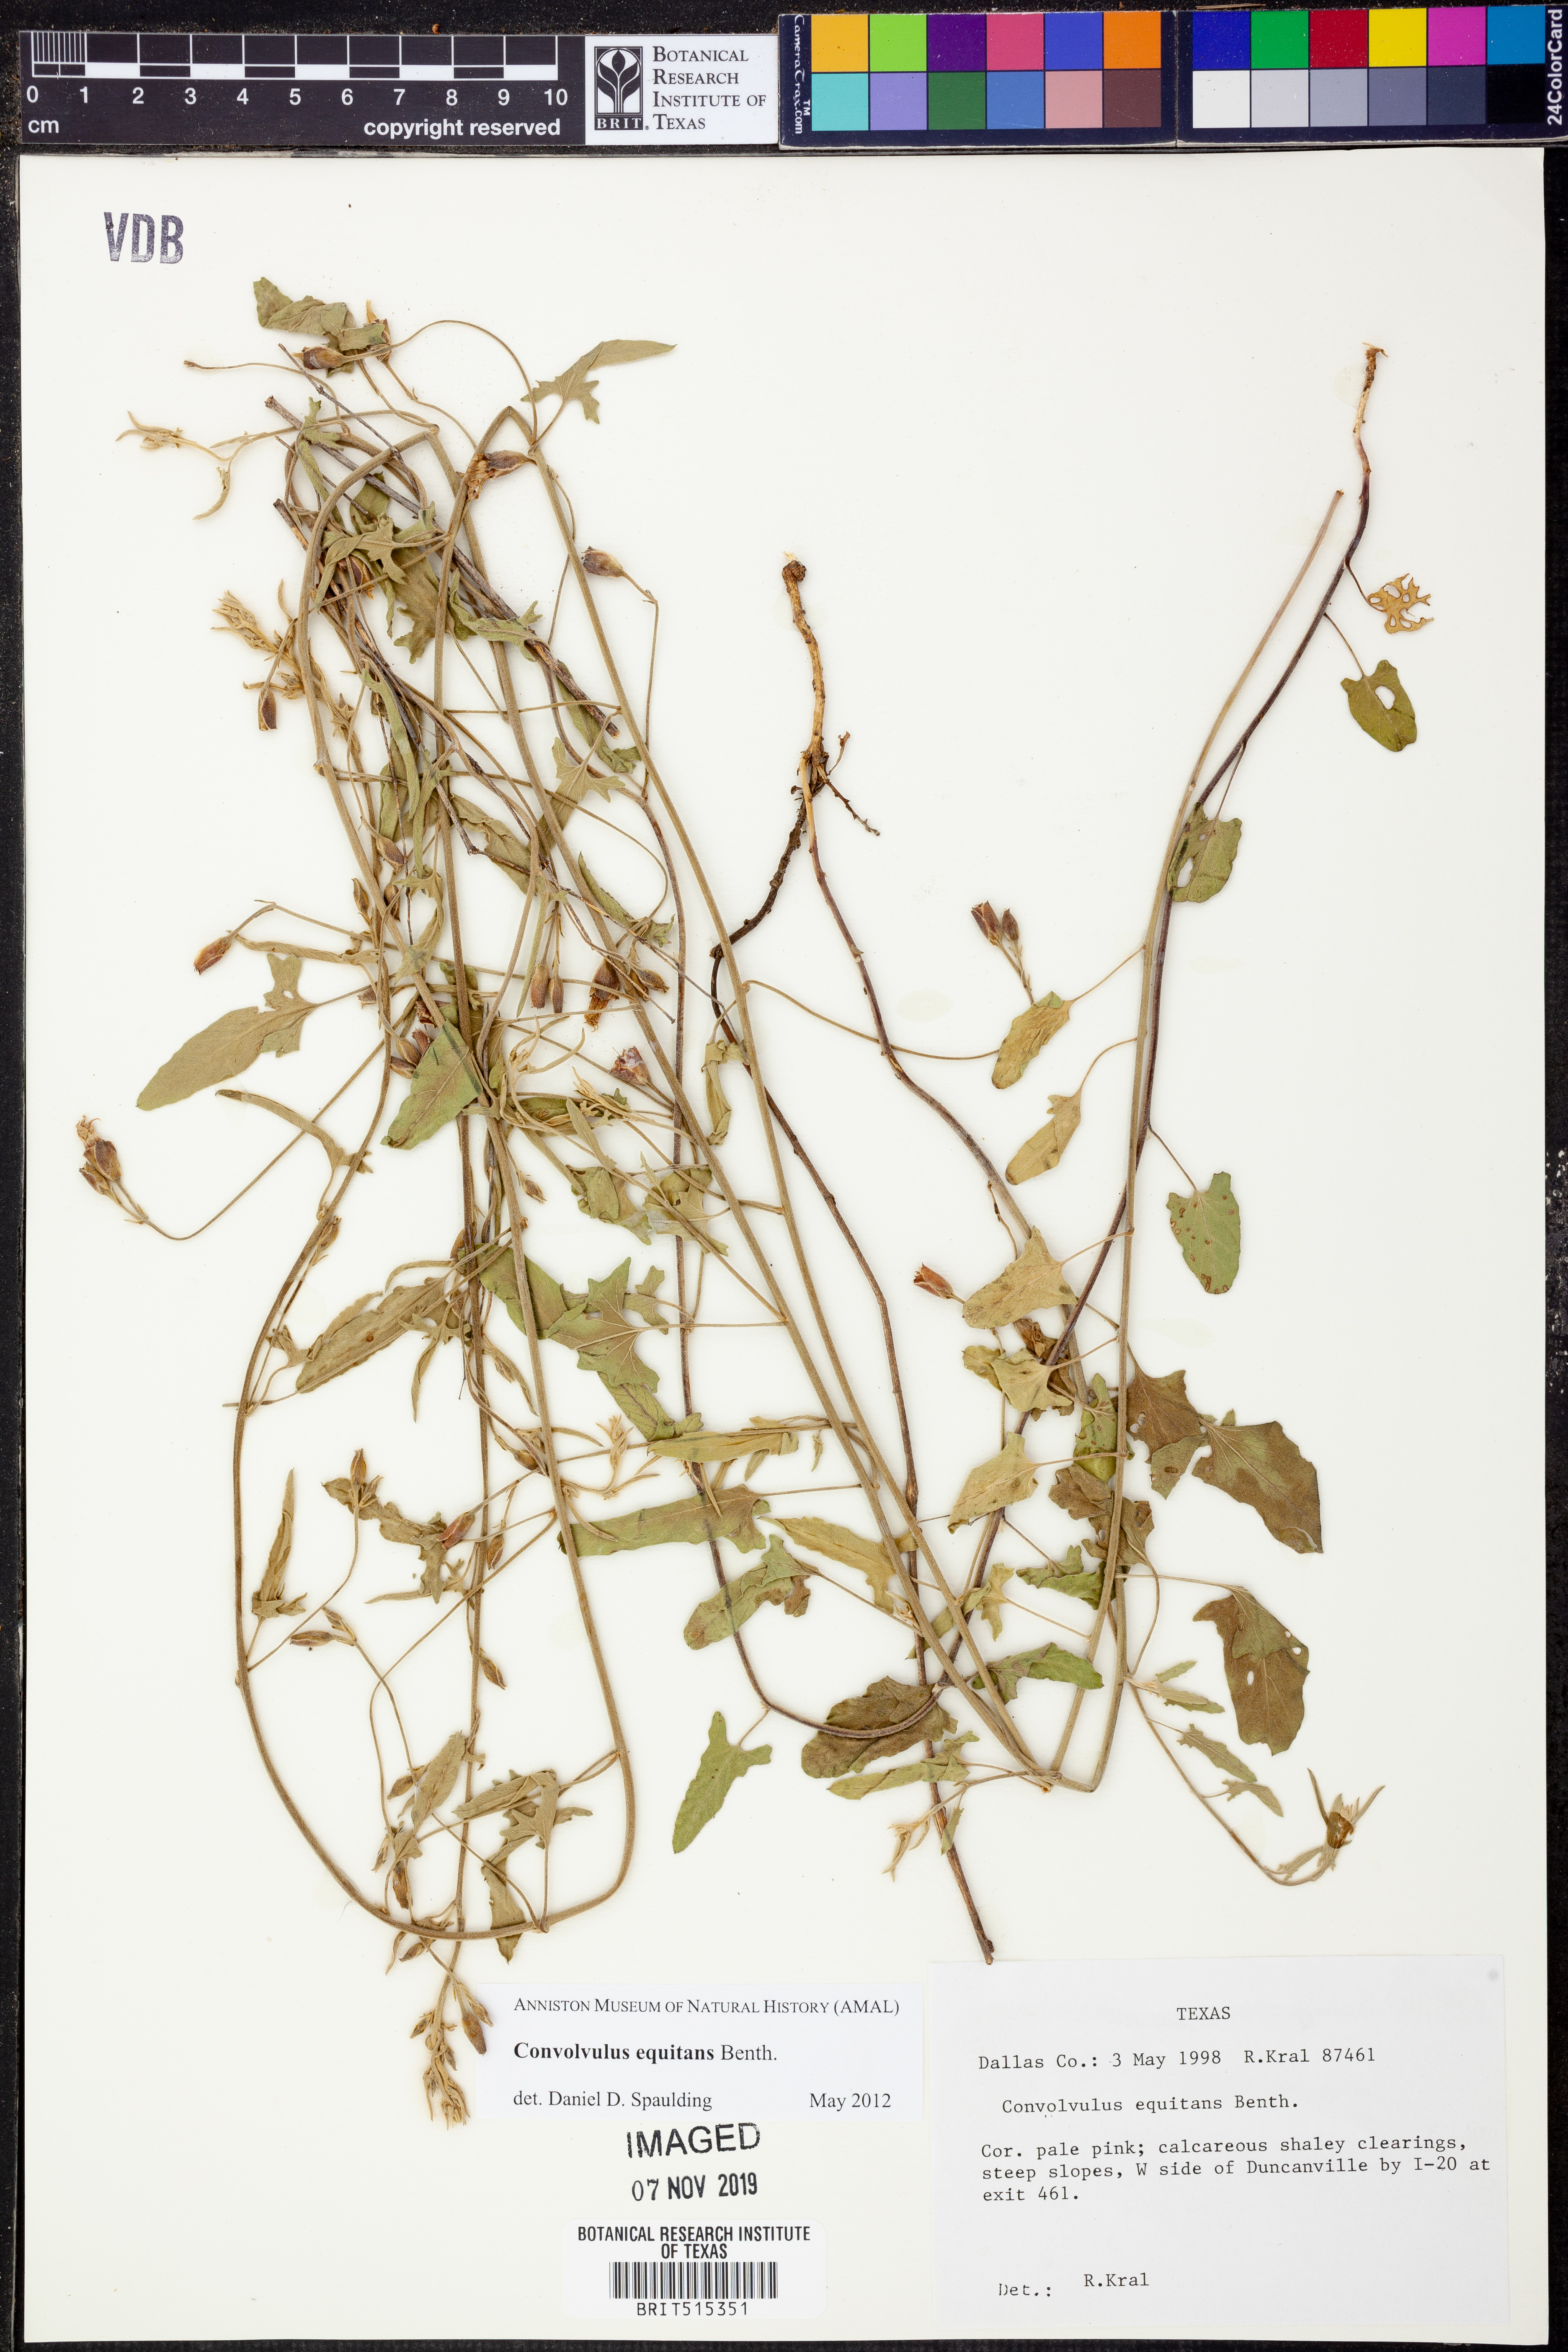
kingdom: Plantae
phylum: Tracheophyta
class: Magnoliopsida
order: Solanales
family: Convolvulaceae
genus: Convolvulus
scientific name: Convolvulus equitans
